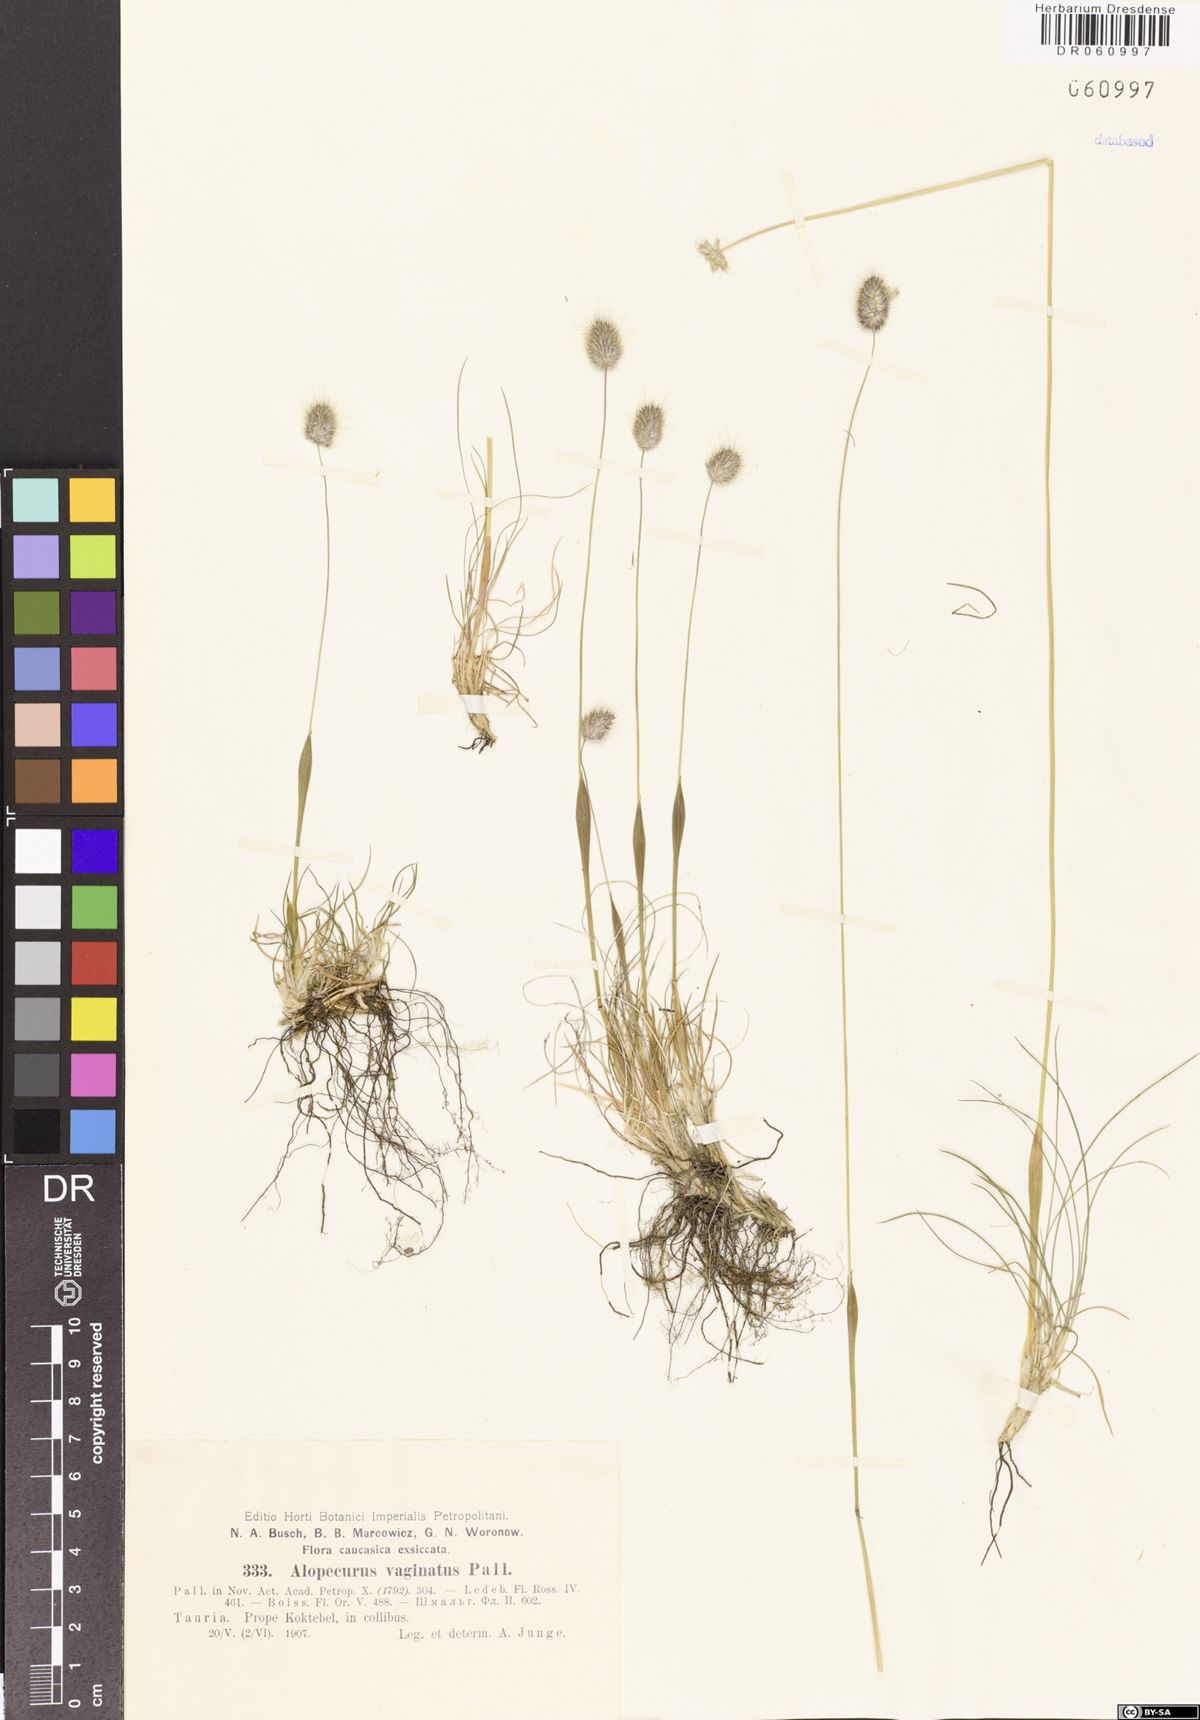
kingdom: Plantae
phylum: Tracheophyta
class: Liliopsida
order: Poales
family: Poaceae
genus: Alopecurus
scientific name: Alopecurus vaginatus
